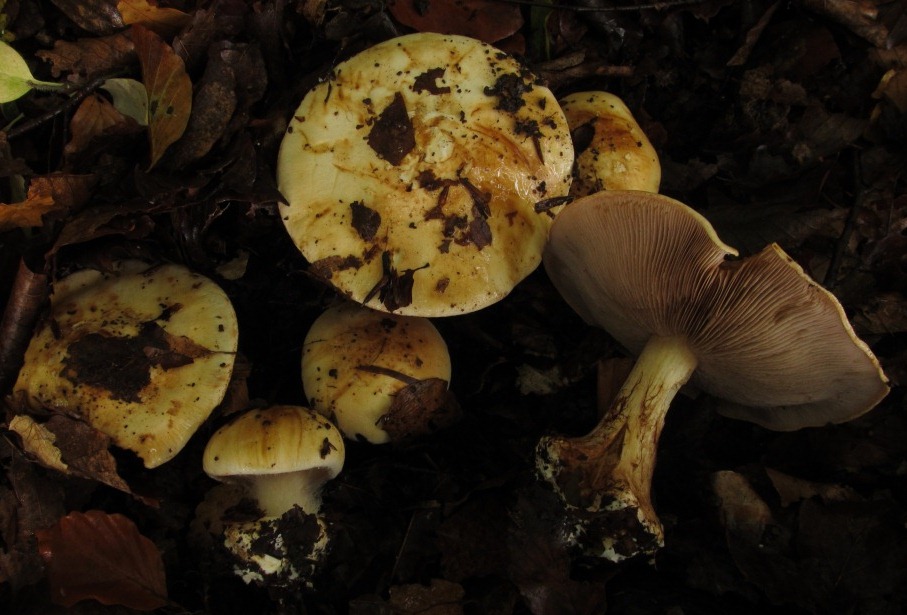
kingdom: Fungi
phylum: Basidiomycota
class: Agaricomycetes
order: Agaricales
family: Cortinariaceae
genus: Calonarius
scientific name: Calonarius albertii
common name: Alberts slørhat
